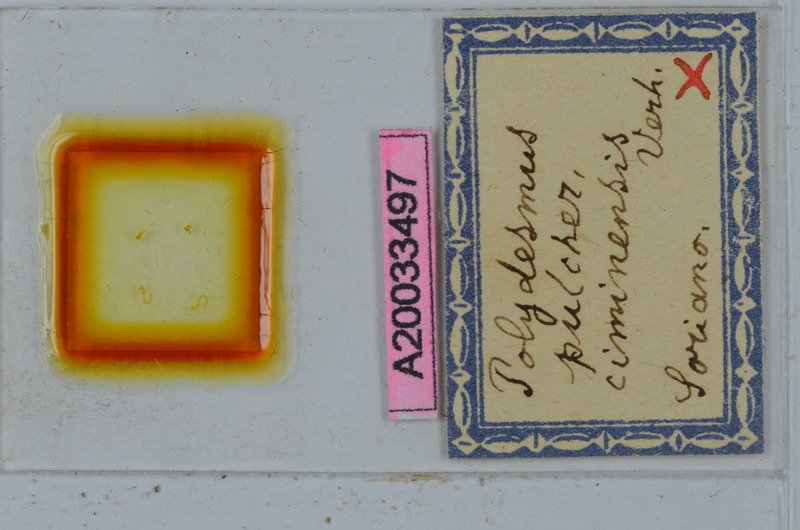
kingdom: Animalia
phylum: Arthropoda
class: Diplopoda
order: Polydesmida
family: Polydesmidae
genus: Polydesmus
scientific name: Polydesmus pulcher
